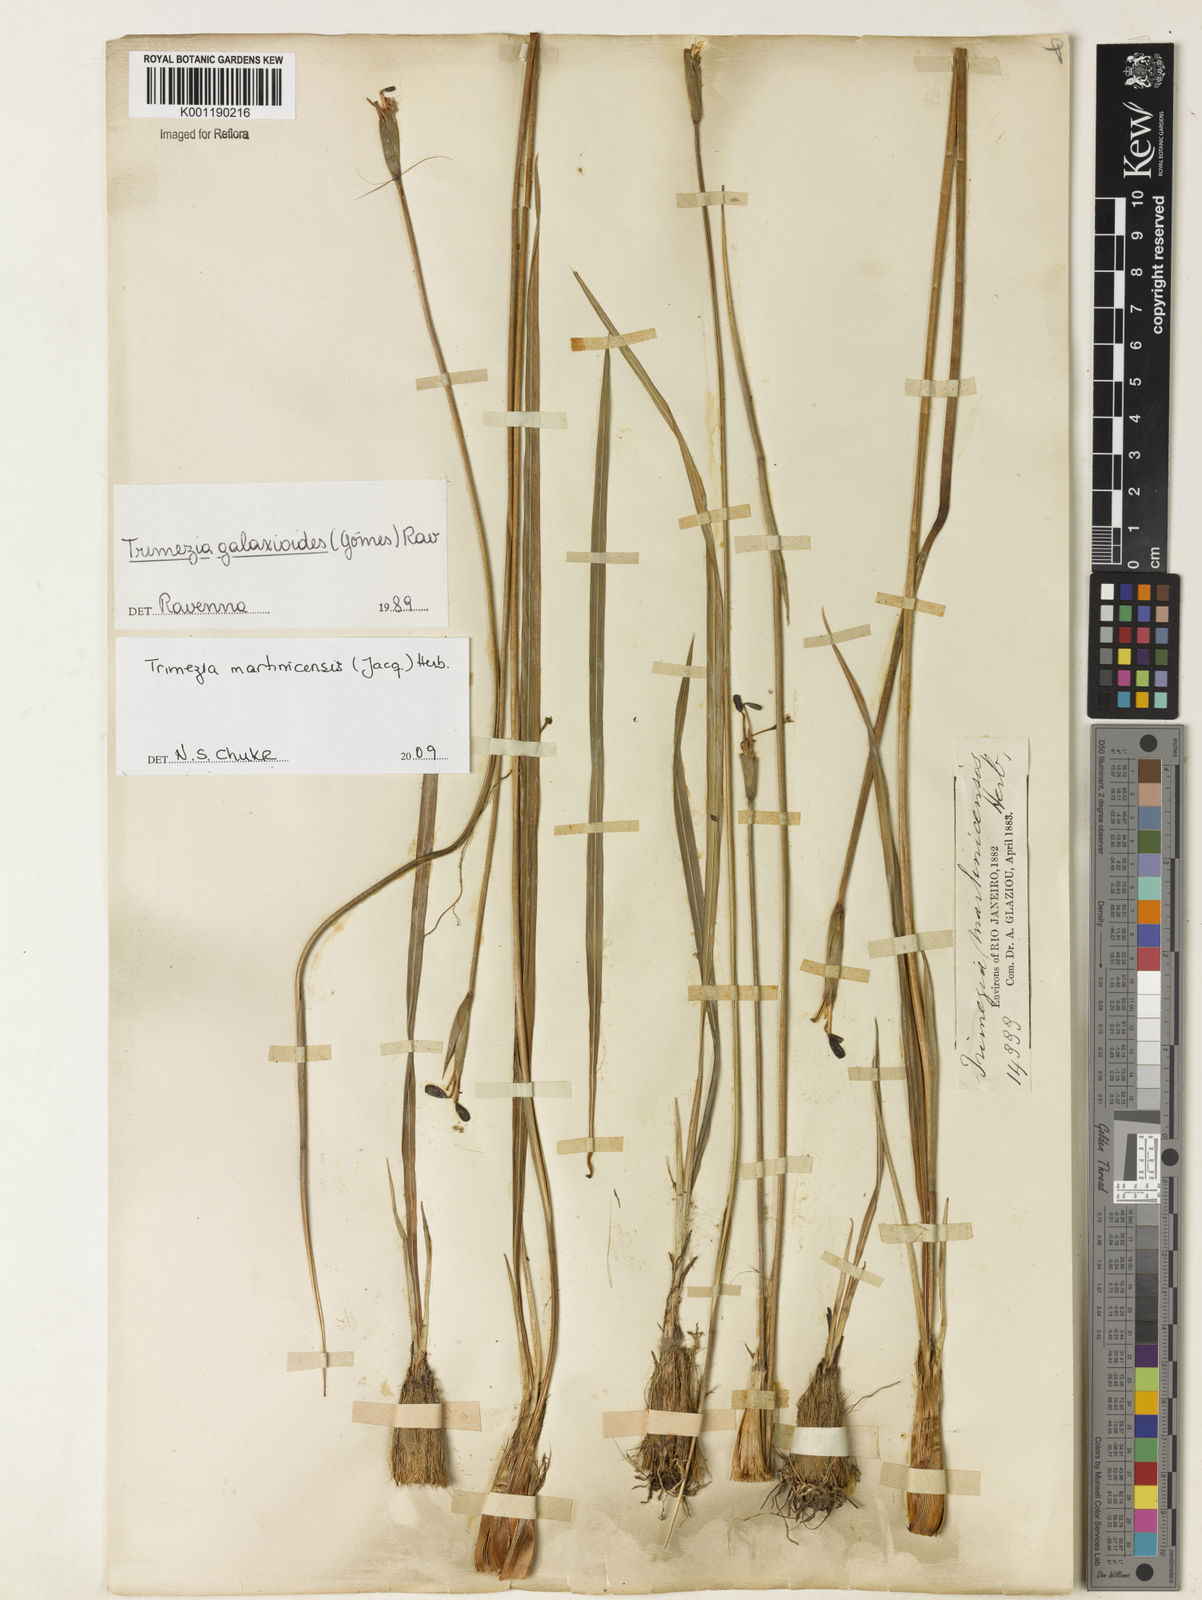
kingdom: Plantae
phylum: Tracheophyta
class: Liliopsida
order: Asparagales
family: Iridaceae
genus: Trimezia
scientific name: Trimezia martinicensis
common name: Martinique trimezia
